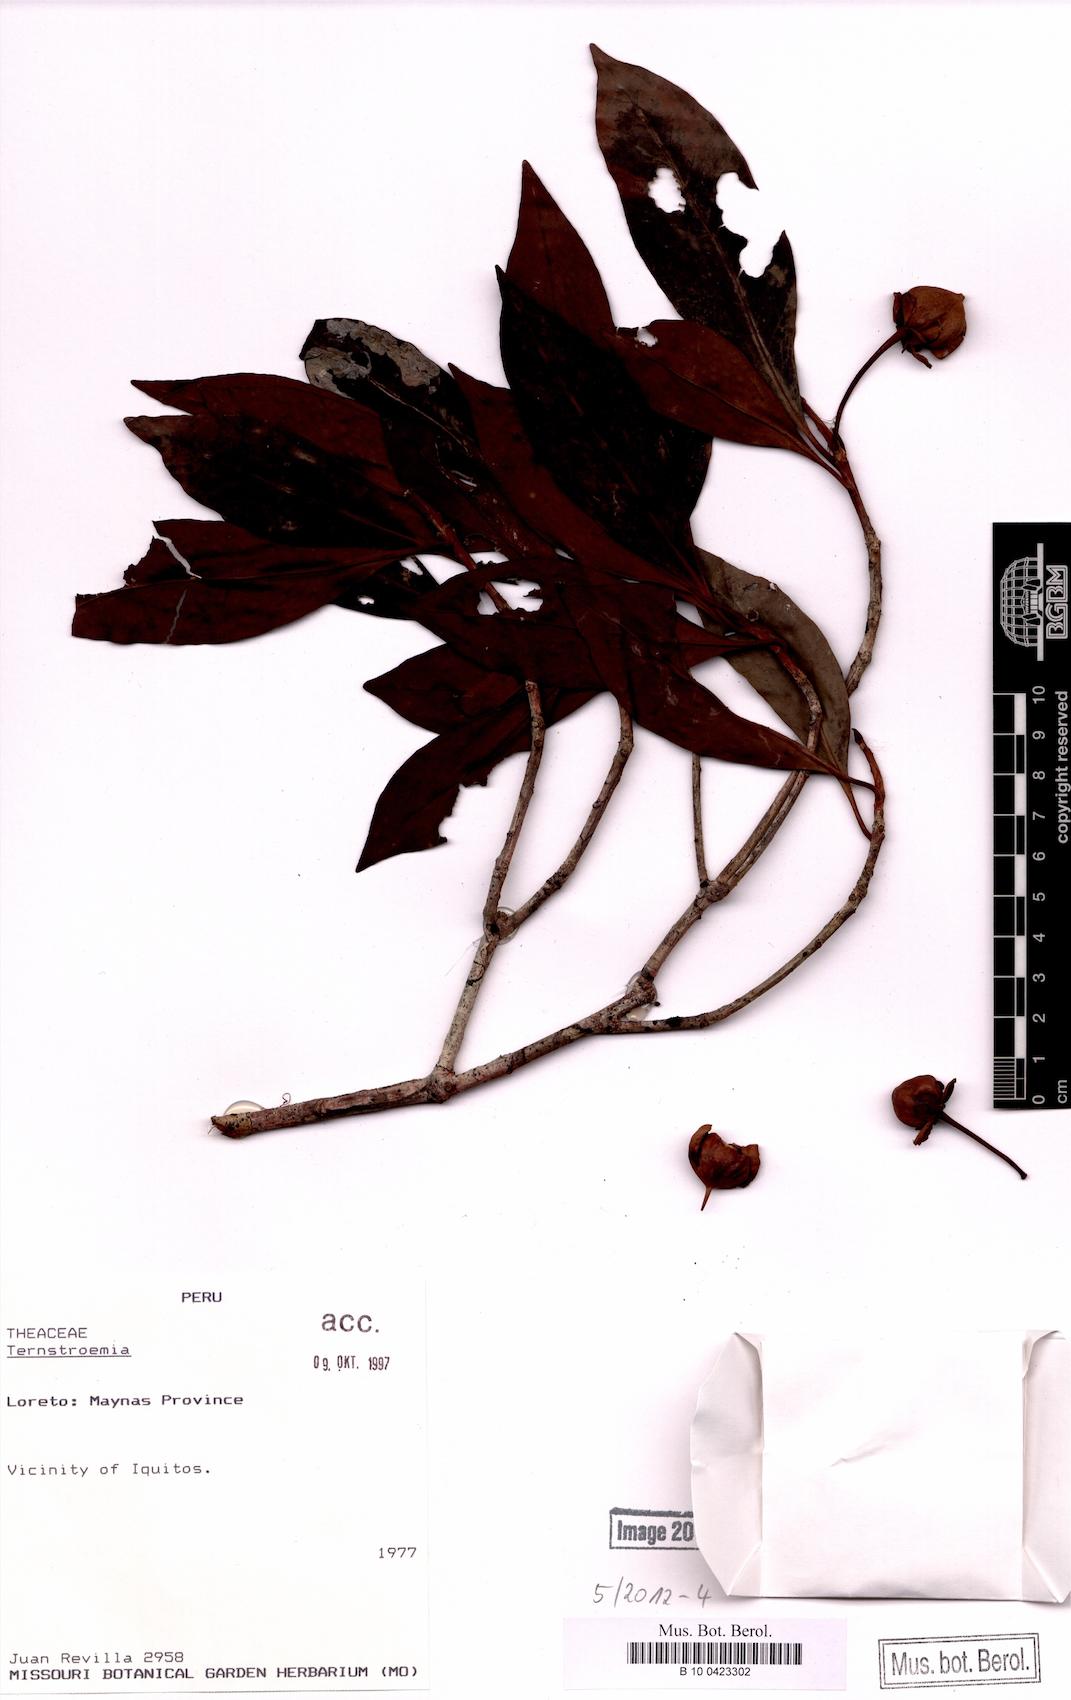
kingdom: Plantae
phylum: Tracheophyta
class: Magnoliopsida
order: Ericales
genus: Ternstroemia
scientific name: Ternstroemia
